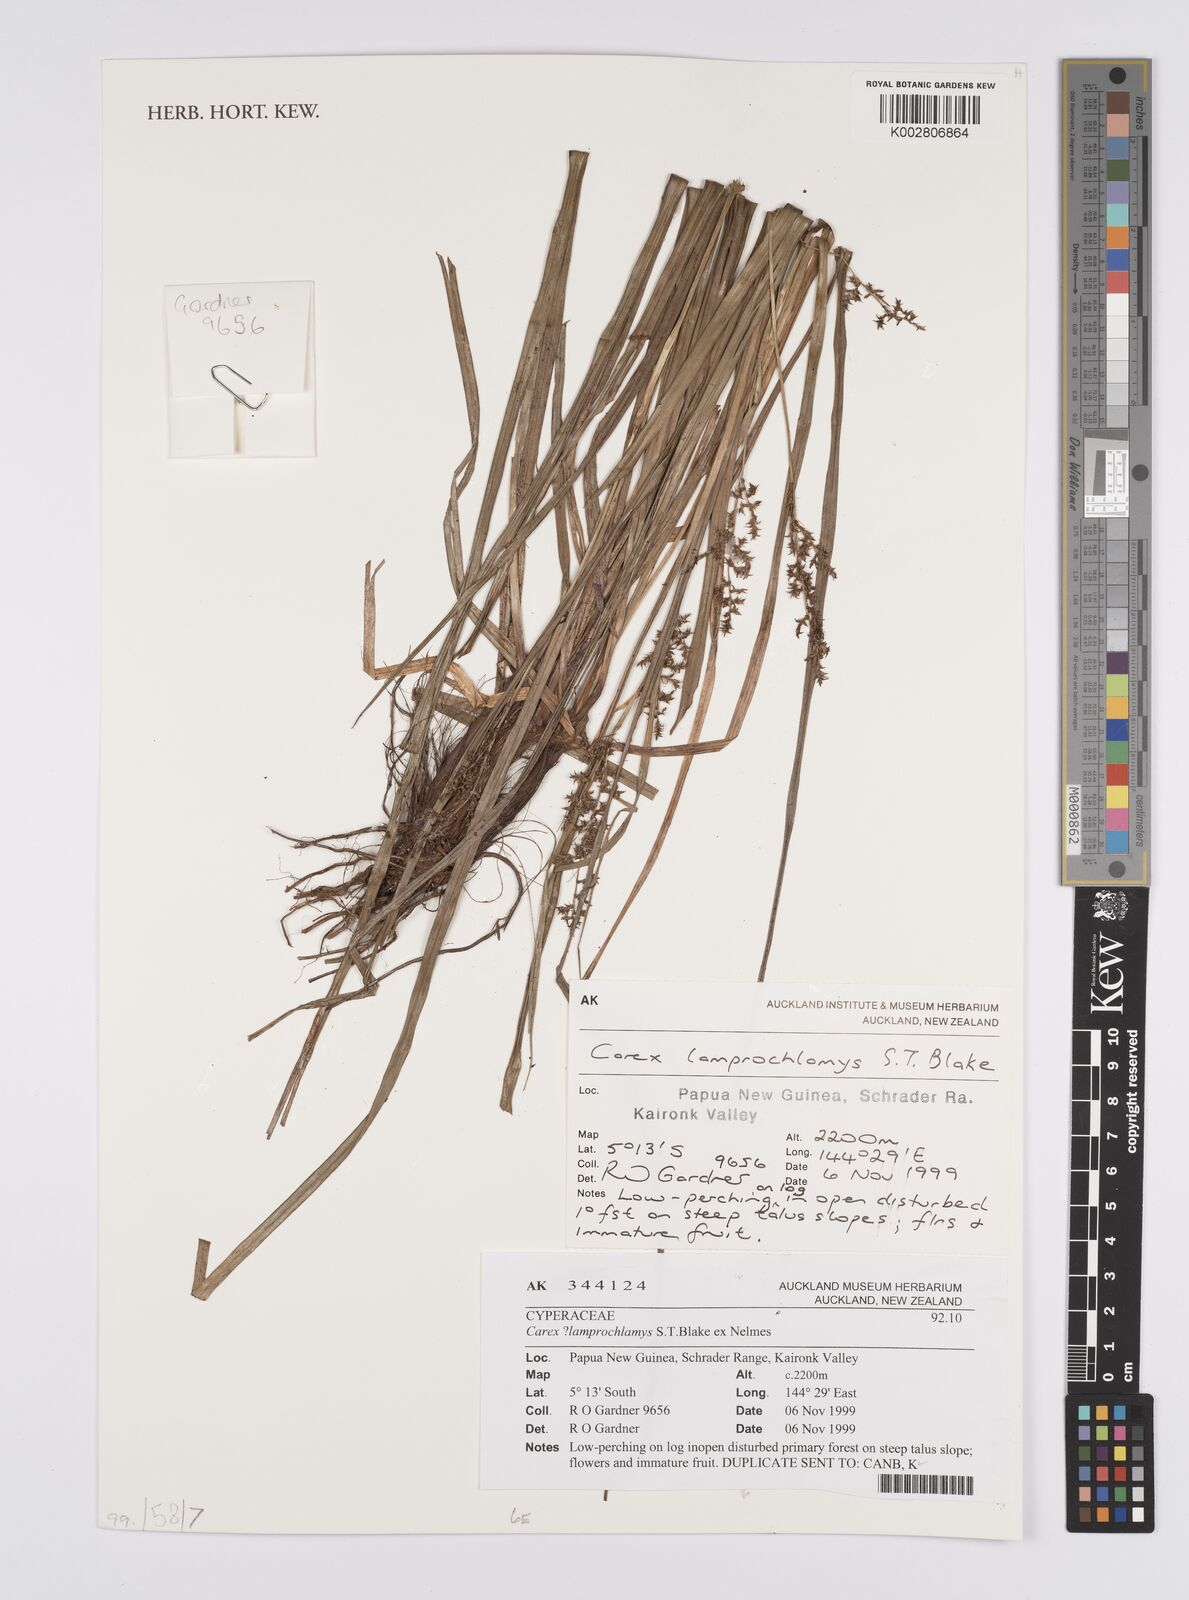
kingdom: Plantae
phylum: Tracheophyta
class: Liliopsida
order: Poales
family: Cyperaceae
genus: Carex
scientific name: Carex lamprochlamys
